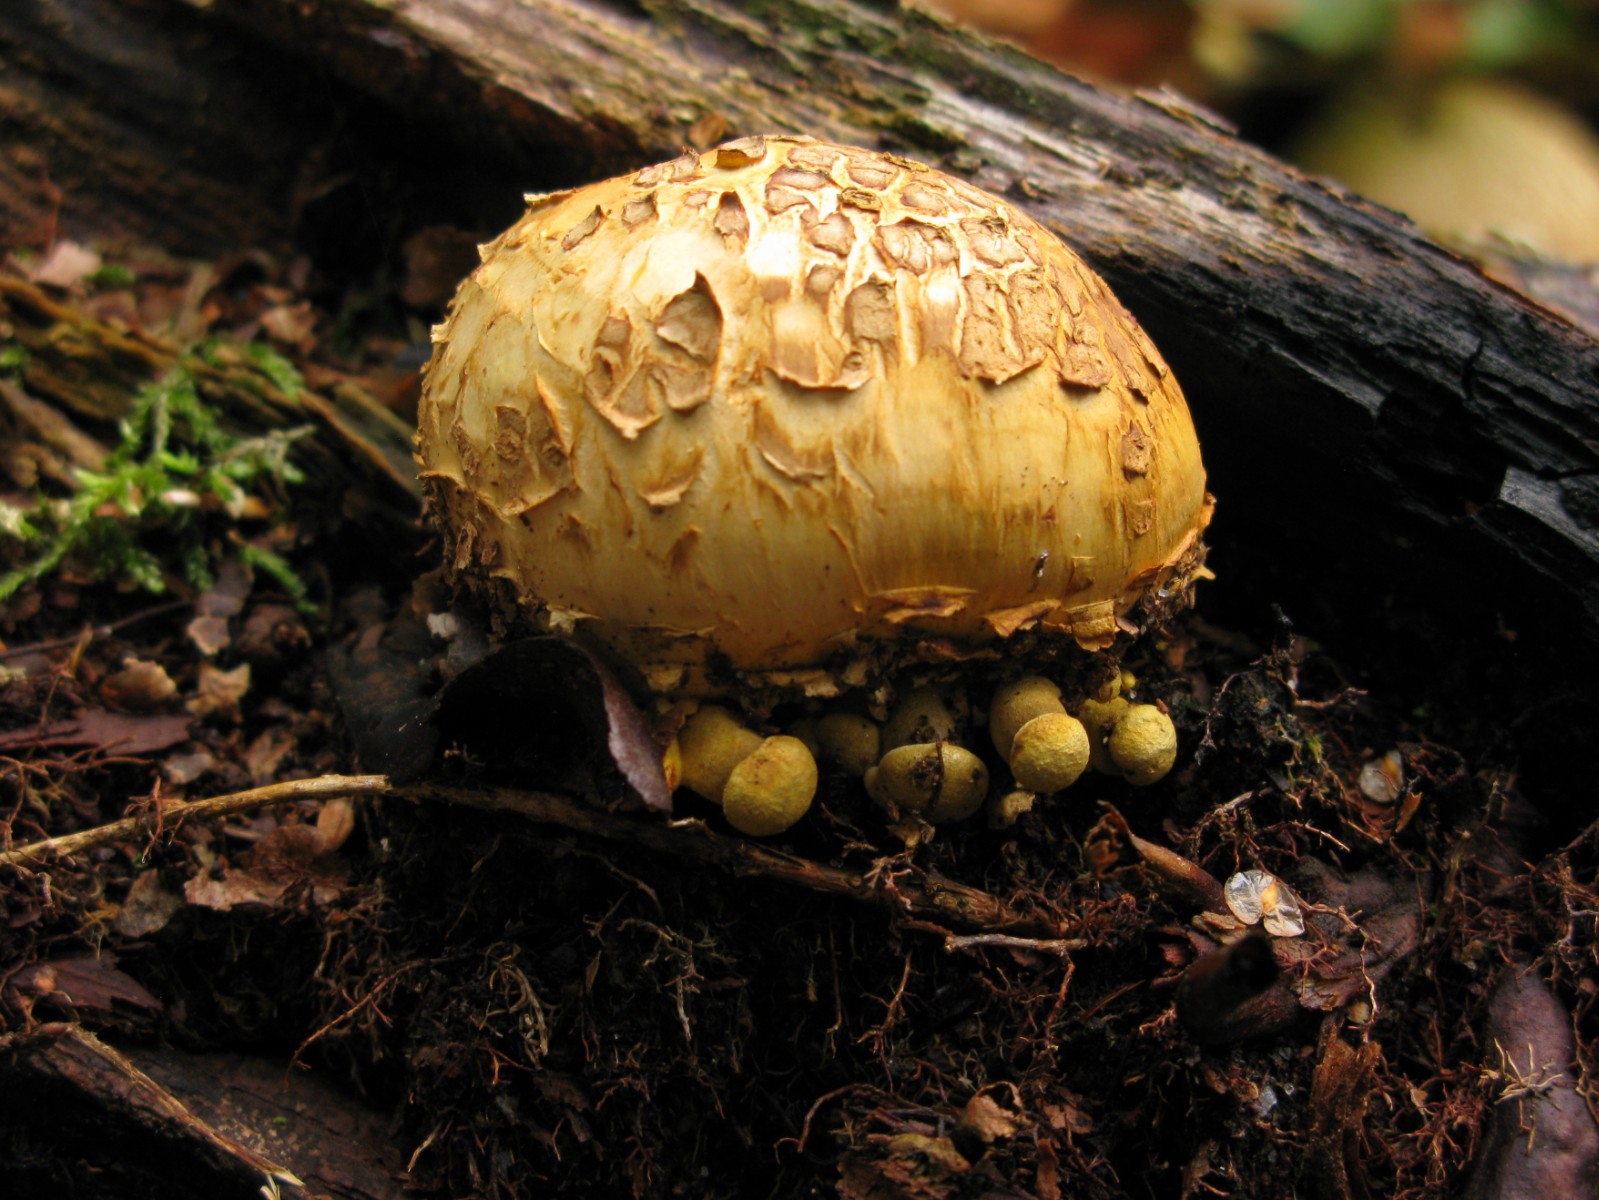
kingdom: Fungi
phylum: Basidiomycota
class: Agaricomycetes
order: Boletales
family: Boletaceae
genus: Pseudoboletus
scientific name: Pseudoboletus parasiticus
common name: snyltende rørhat
